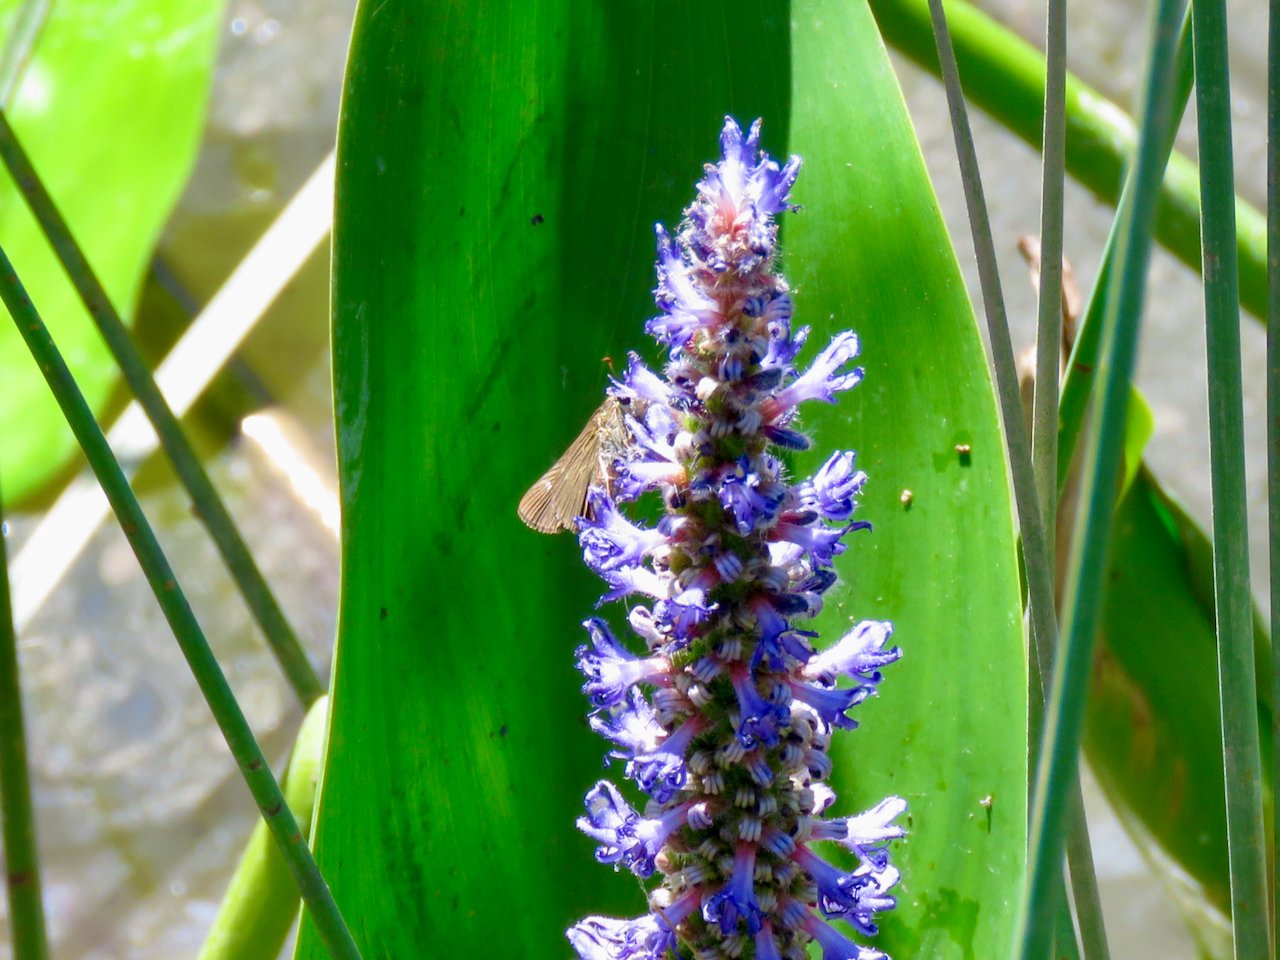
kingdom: Animalia
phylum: Arthropoda
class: Insecta
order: Lepidoptera
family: Hesperiidae
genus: Panoquina
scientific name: Panoquina ocola
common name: Ocola Skipper
